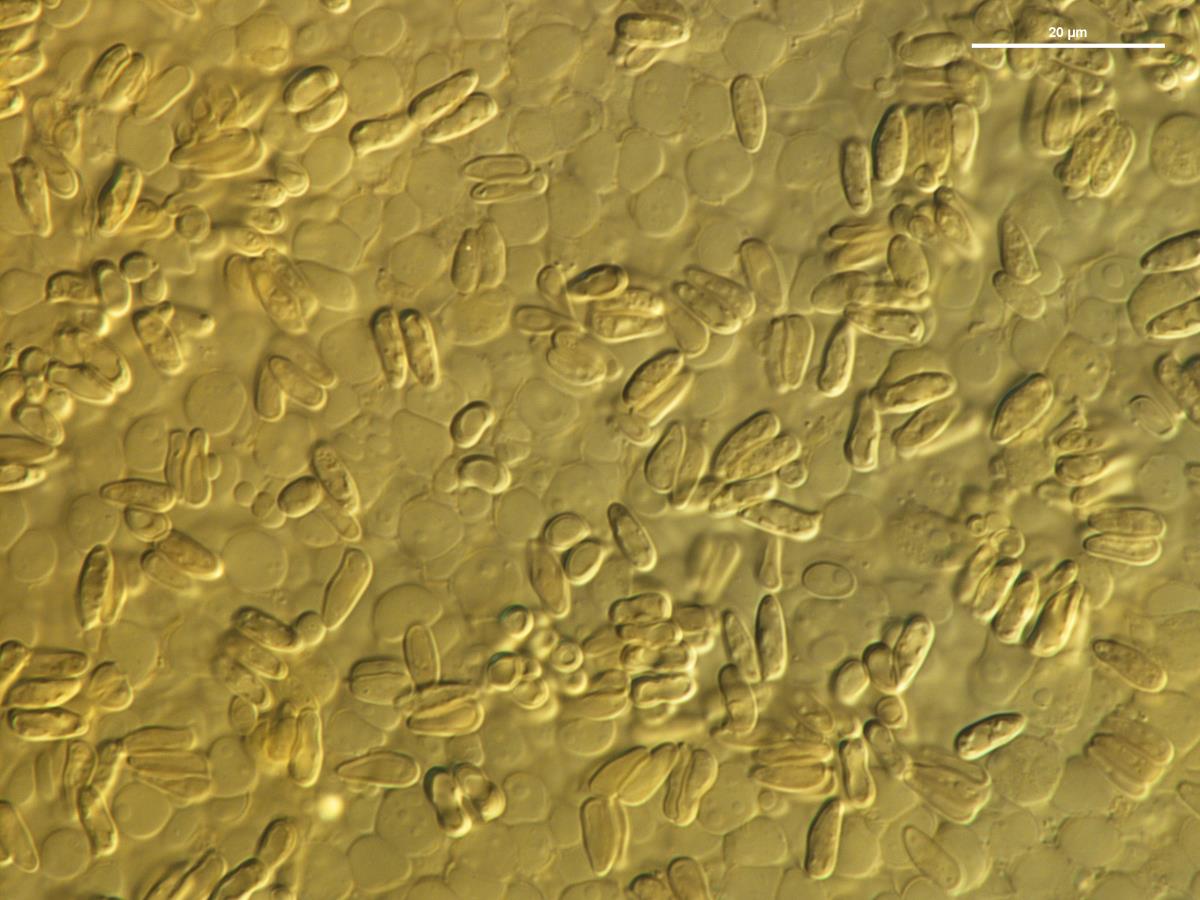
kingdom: Fungi
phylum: Basidiomycota
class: Agaricomycetes
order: Agaricales
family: Agaricaceae
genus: Cystolepiota
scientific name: Cystolepiota
